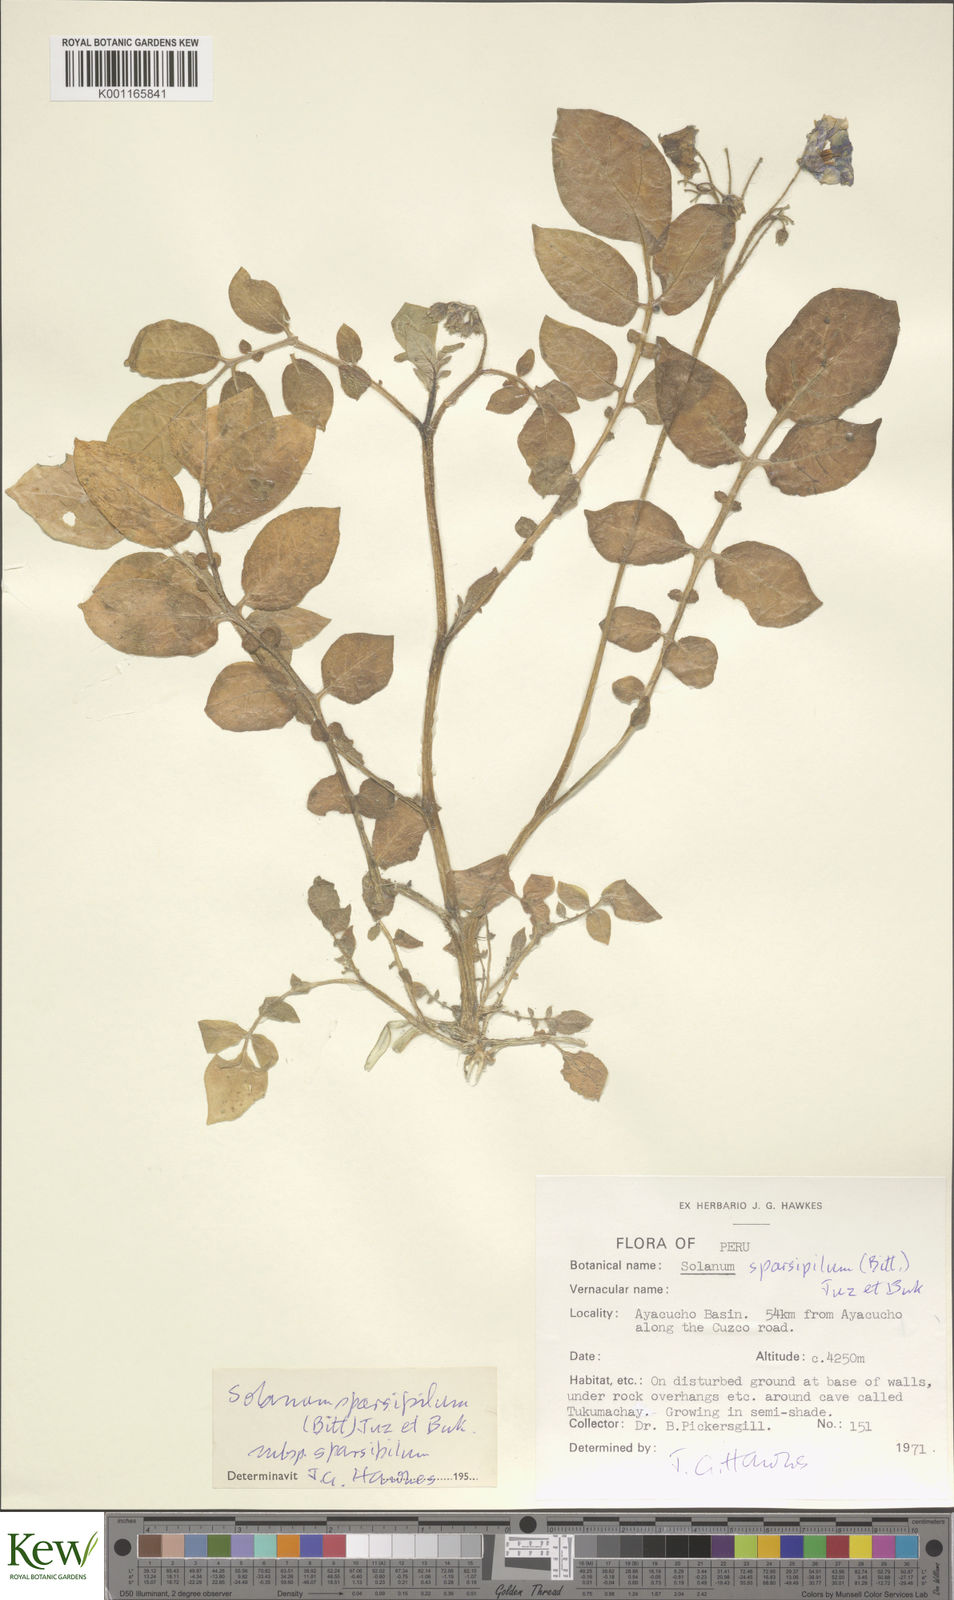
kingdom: Plantae
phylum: Tracheophyta
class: Magnoliopsida
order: Solanales
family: Solanaceae
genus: Solanum
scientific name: Solanum brevicaule
